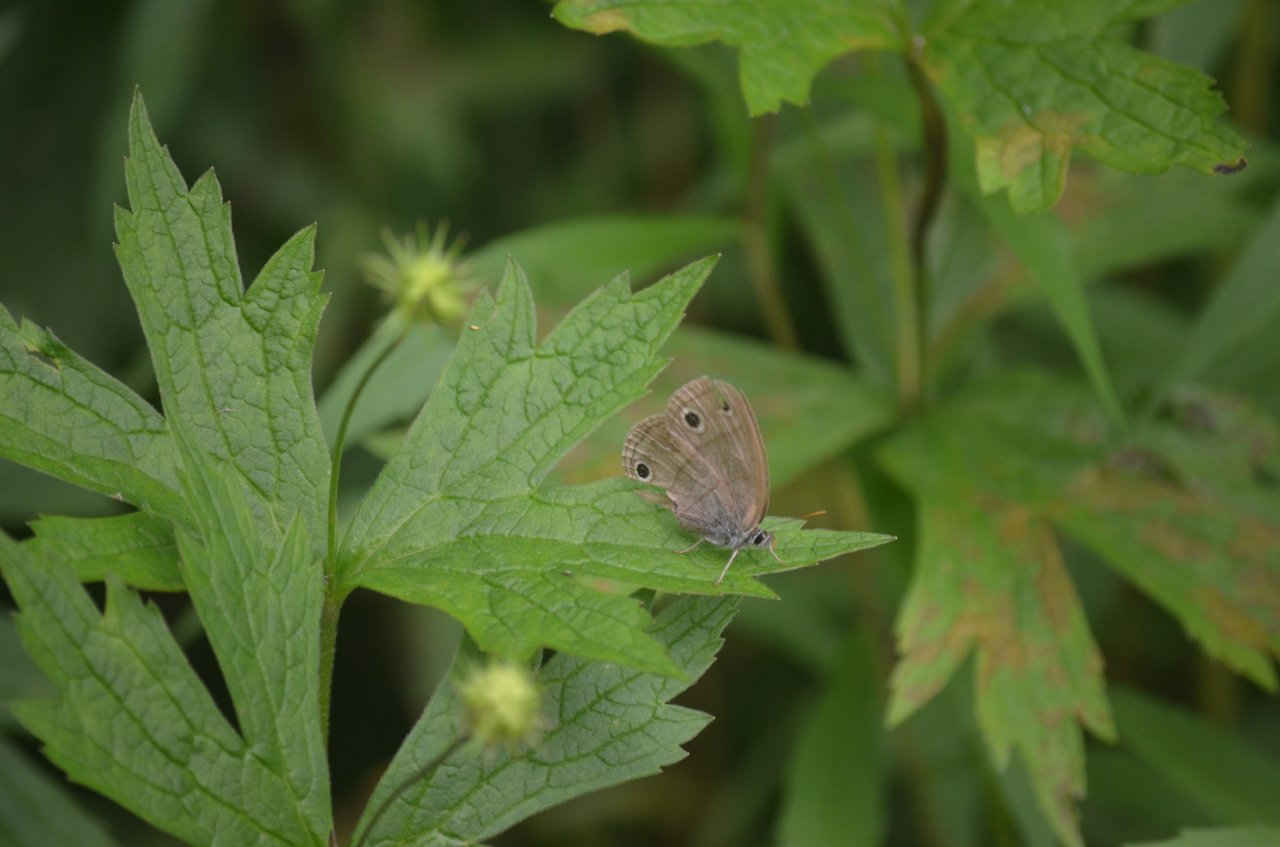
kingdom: Animalia
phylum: Arthropoda
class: Insecta
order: Lepidoptera
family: Nymphalidae
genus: Euptychia
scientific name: Euptychia cymela
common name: Little Wood Satyr
